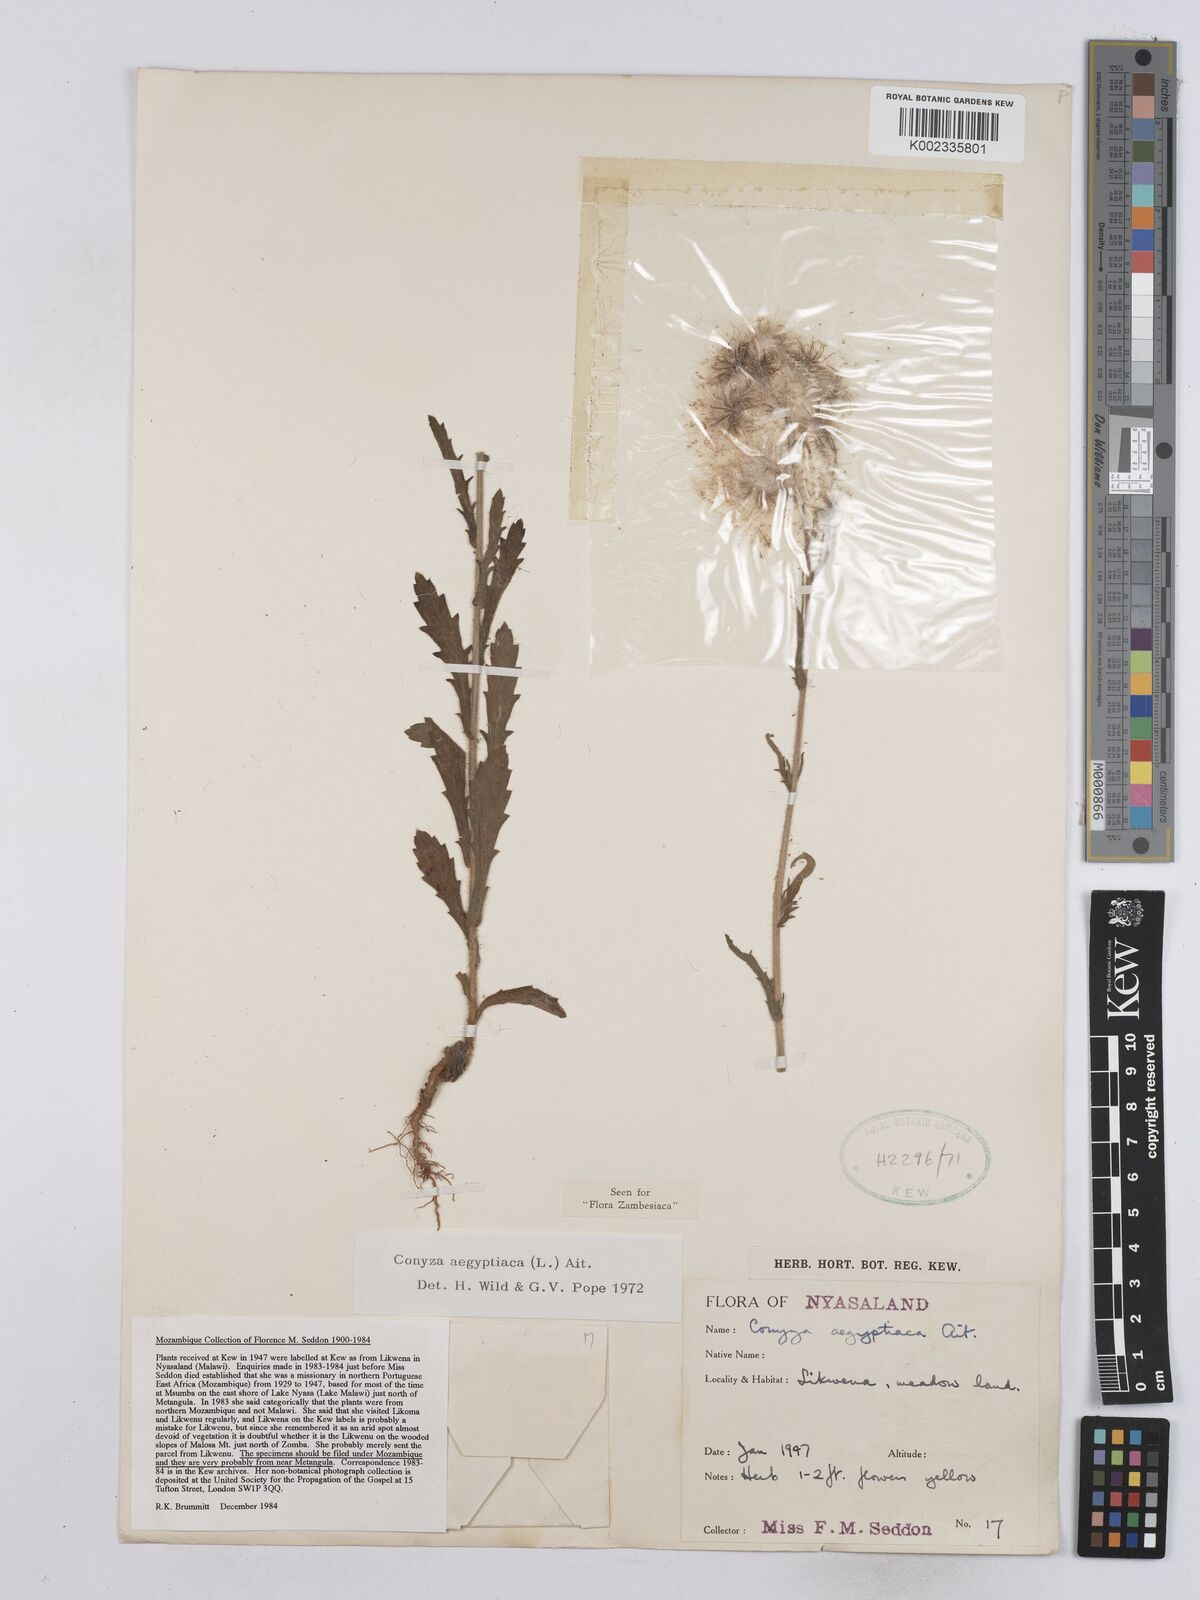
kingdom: Plantae
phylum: Tracheophyta
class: Magnoliopsida
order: Asterales
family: Asteraceae
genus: Nidorella
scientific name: Nidorella aegyptiaca
